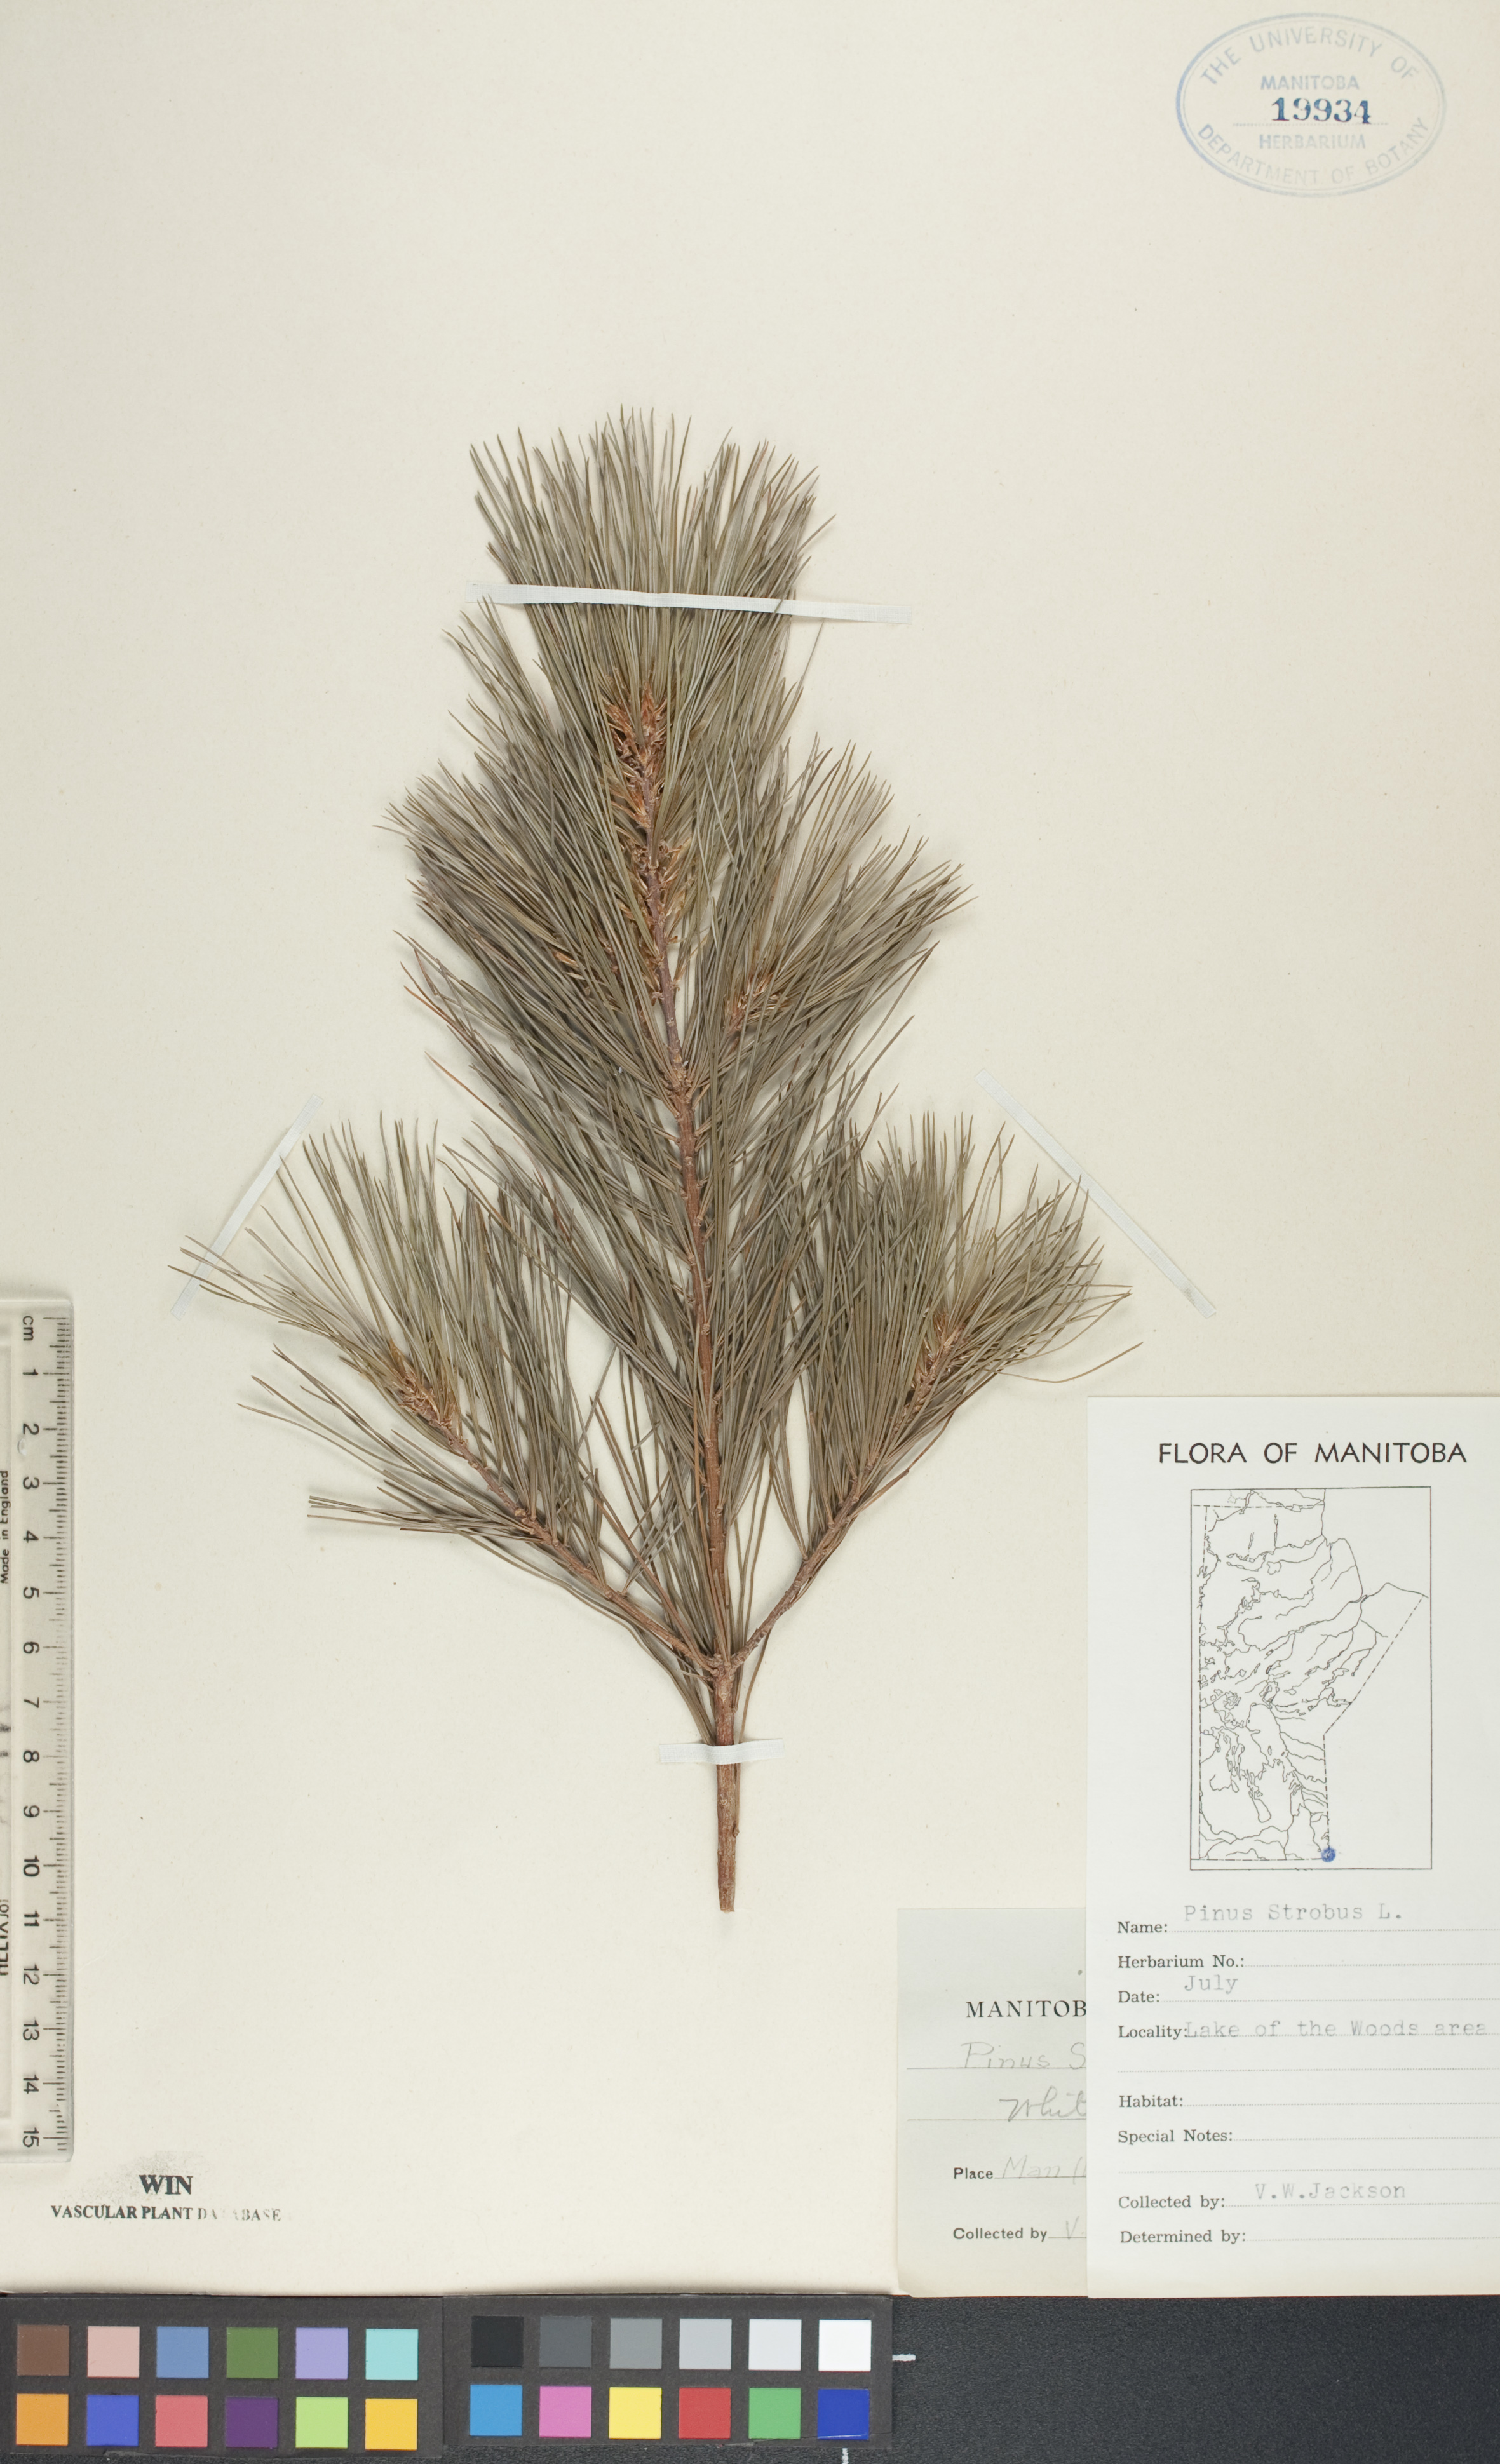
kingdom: Plantae
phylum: Tracheophyta
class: Pinopsida
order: Pinales
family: Pinaceae
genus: Pinus
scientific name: Pinus strobus
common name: Weymouth pine
